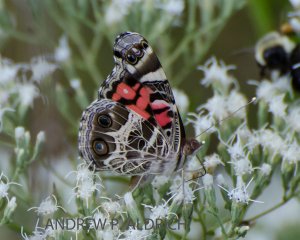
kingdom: Animalia
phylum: Arthropoda
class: Insecta
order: Lepidoptera
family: Nymphalidae
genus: Vanessa
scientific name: Vanessa virginiensis
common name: American Lady
